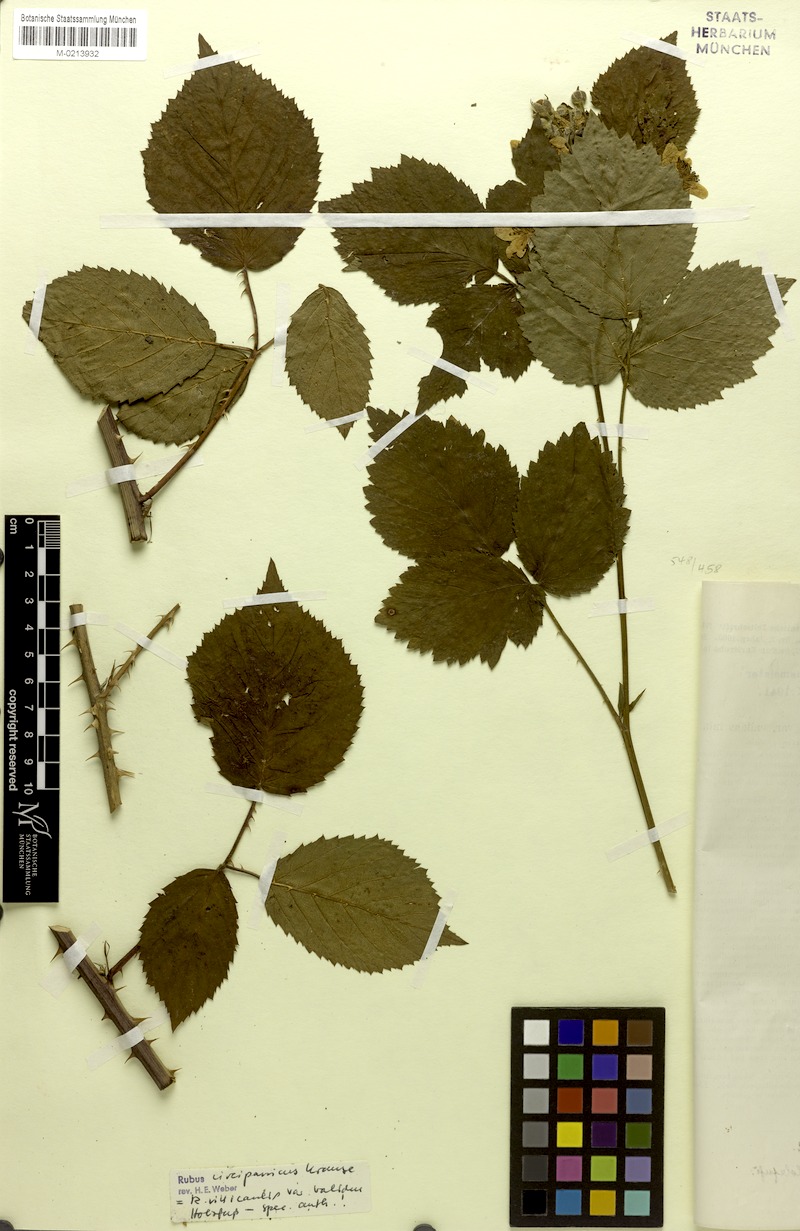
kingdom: Plantae
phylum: Tracheophyta
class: Magnoliopsida
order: Rosales
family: Rosaceae
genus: Rubus
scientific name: Rubus circipanicus
